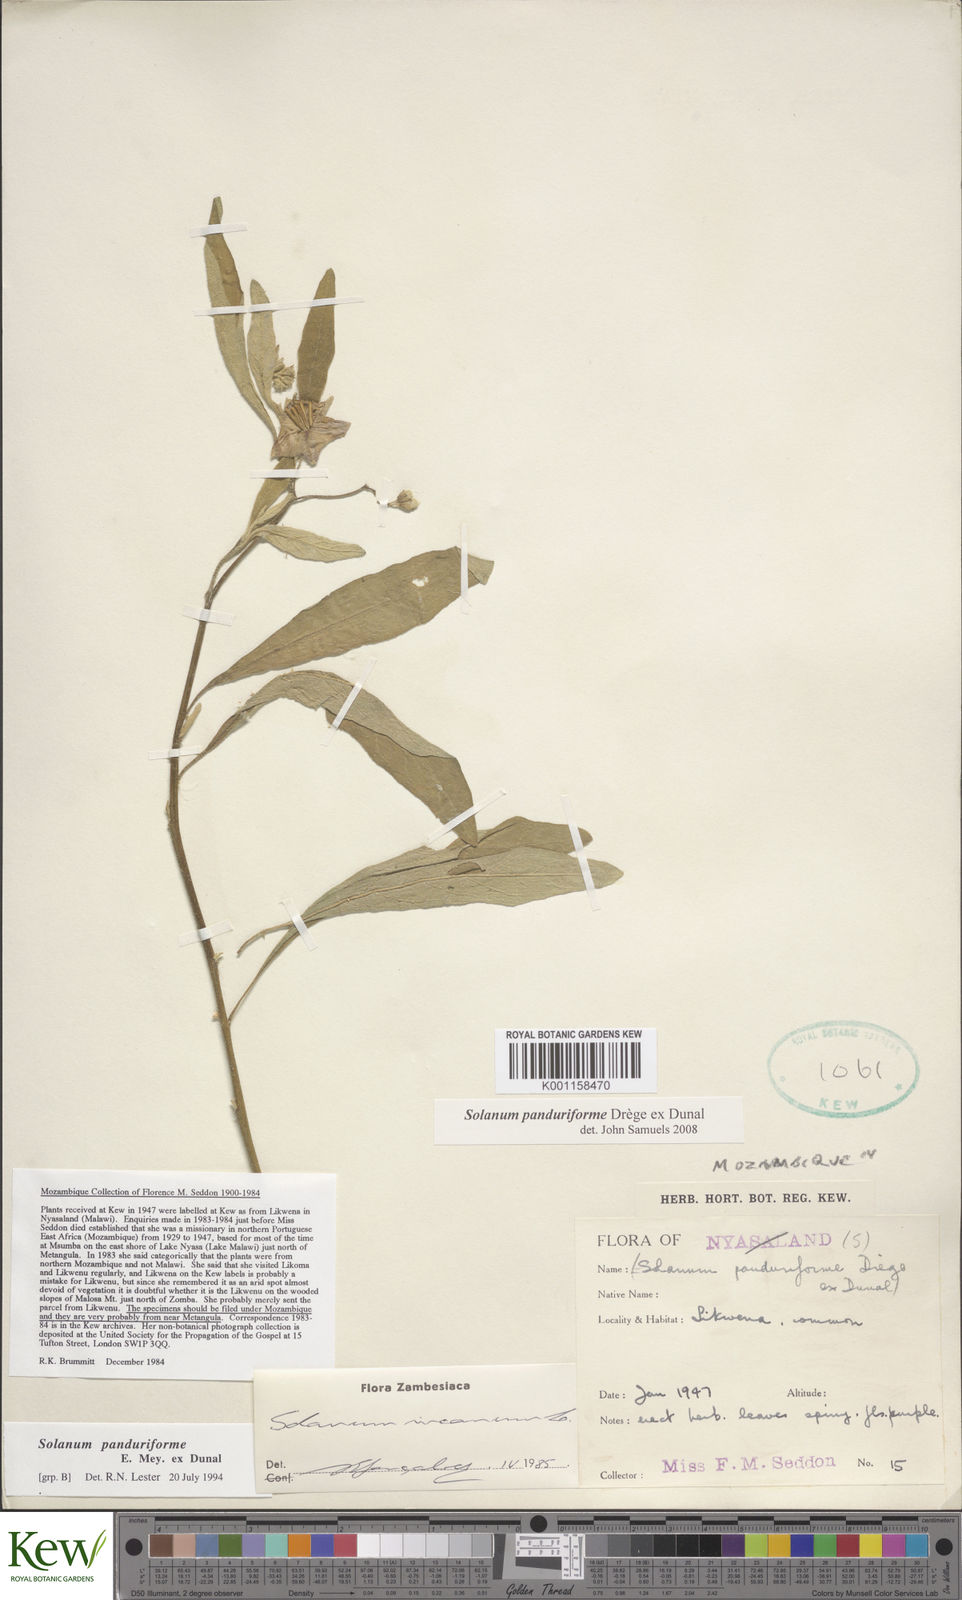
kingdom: Plantae
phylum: Tracheophyta
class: Magnoliopsida
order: Solanales
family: Solanaceae
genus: Solanum
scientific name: Solanum campylacanthum
